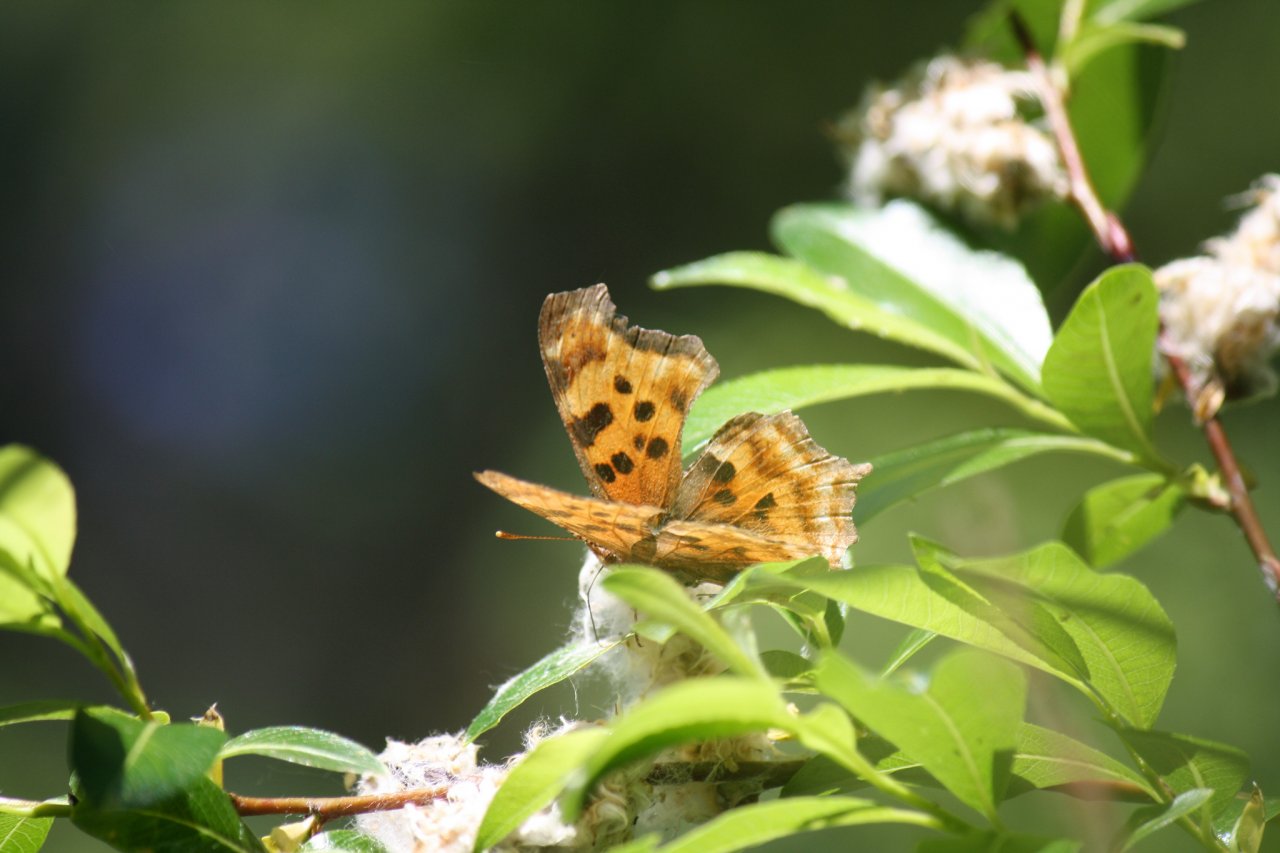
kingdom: Animalia
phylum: Arthropoda
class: Insecta
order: Lepidoptera
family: Nymphalidae
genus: Polygonia
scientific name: Polygonia satyrus
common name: Satyr Comma
